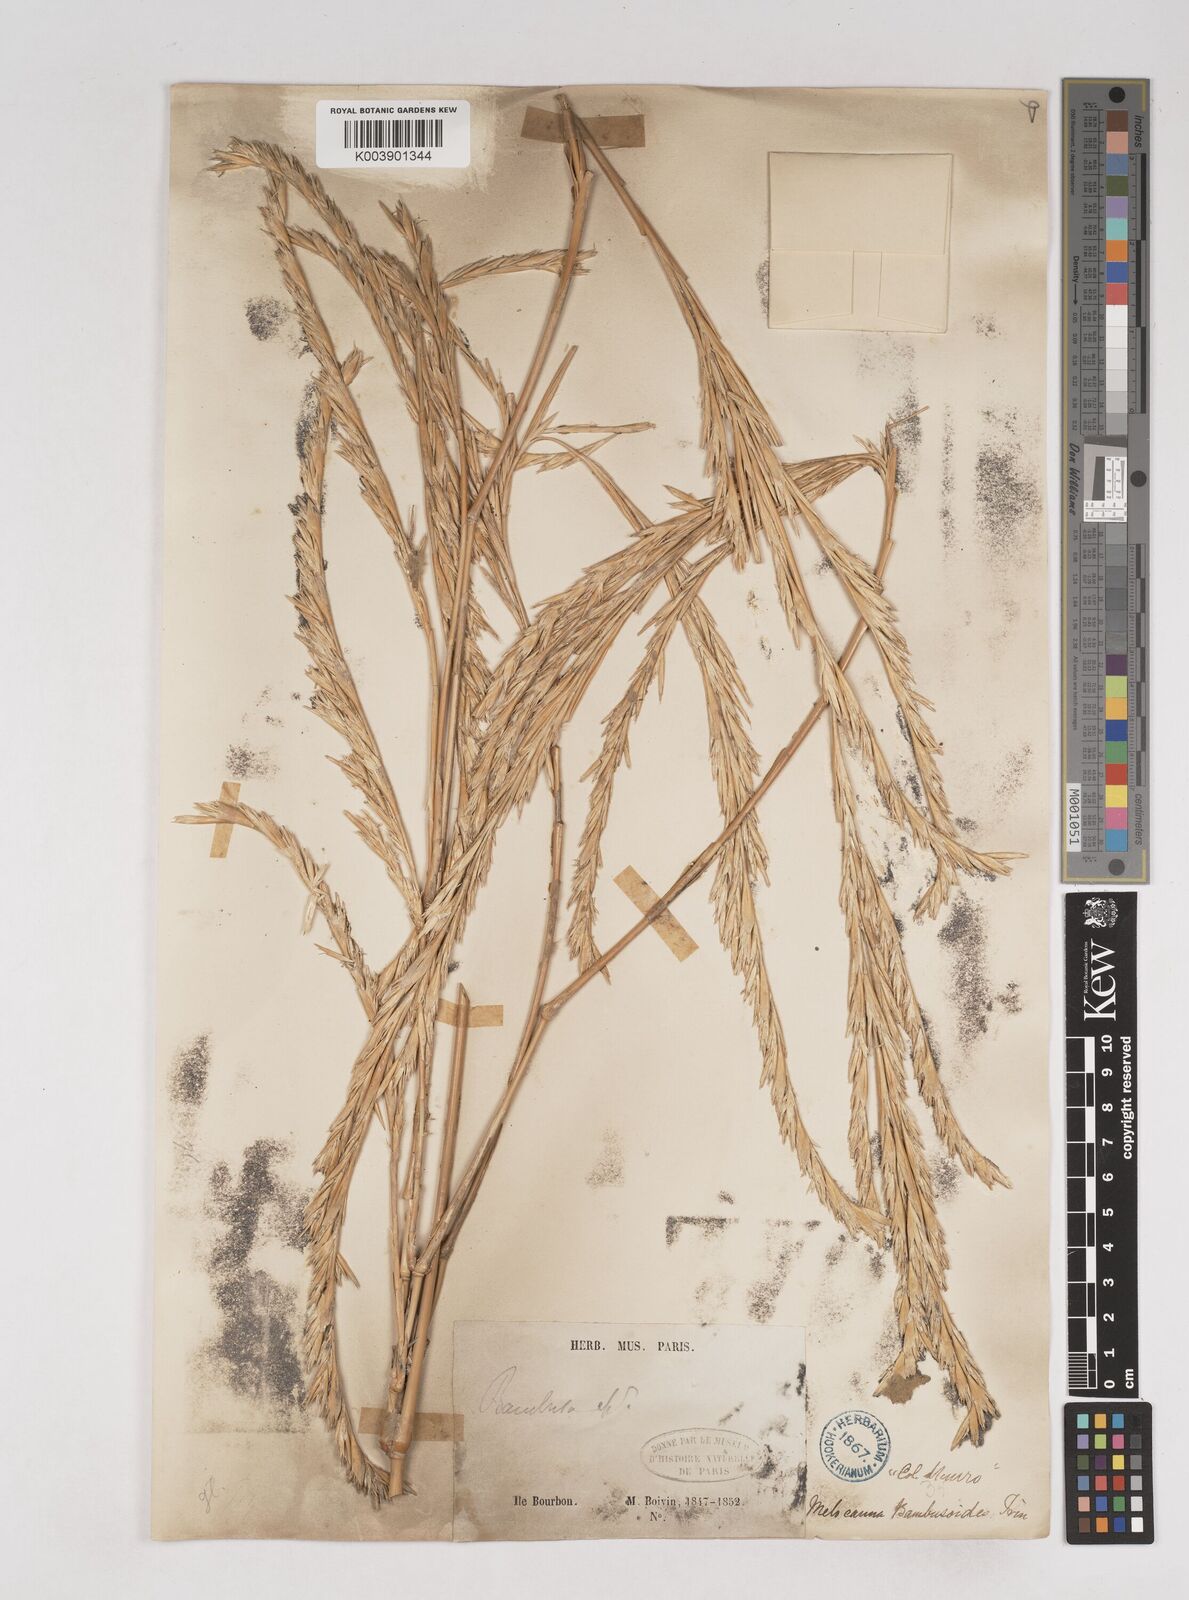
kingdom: Plantae
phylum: Tracheophyta
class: Liliopsida
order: Poales
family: Poaceae
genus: Melocanna
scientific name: Melocanna baccifera
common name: Berry bamboo
